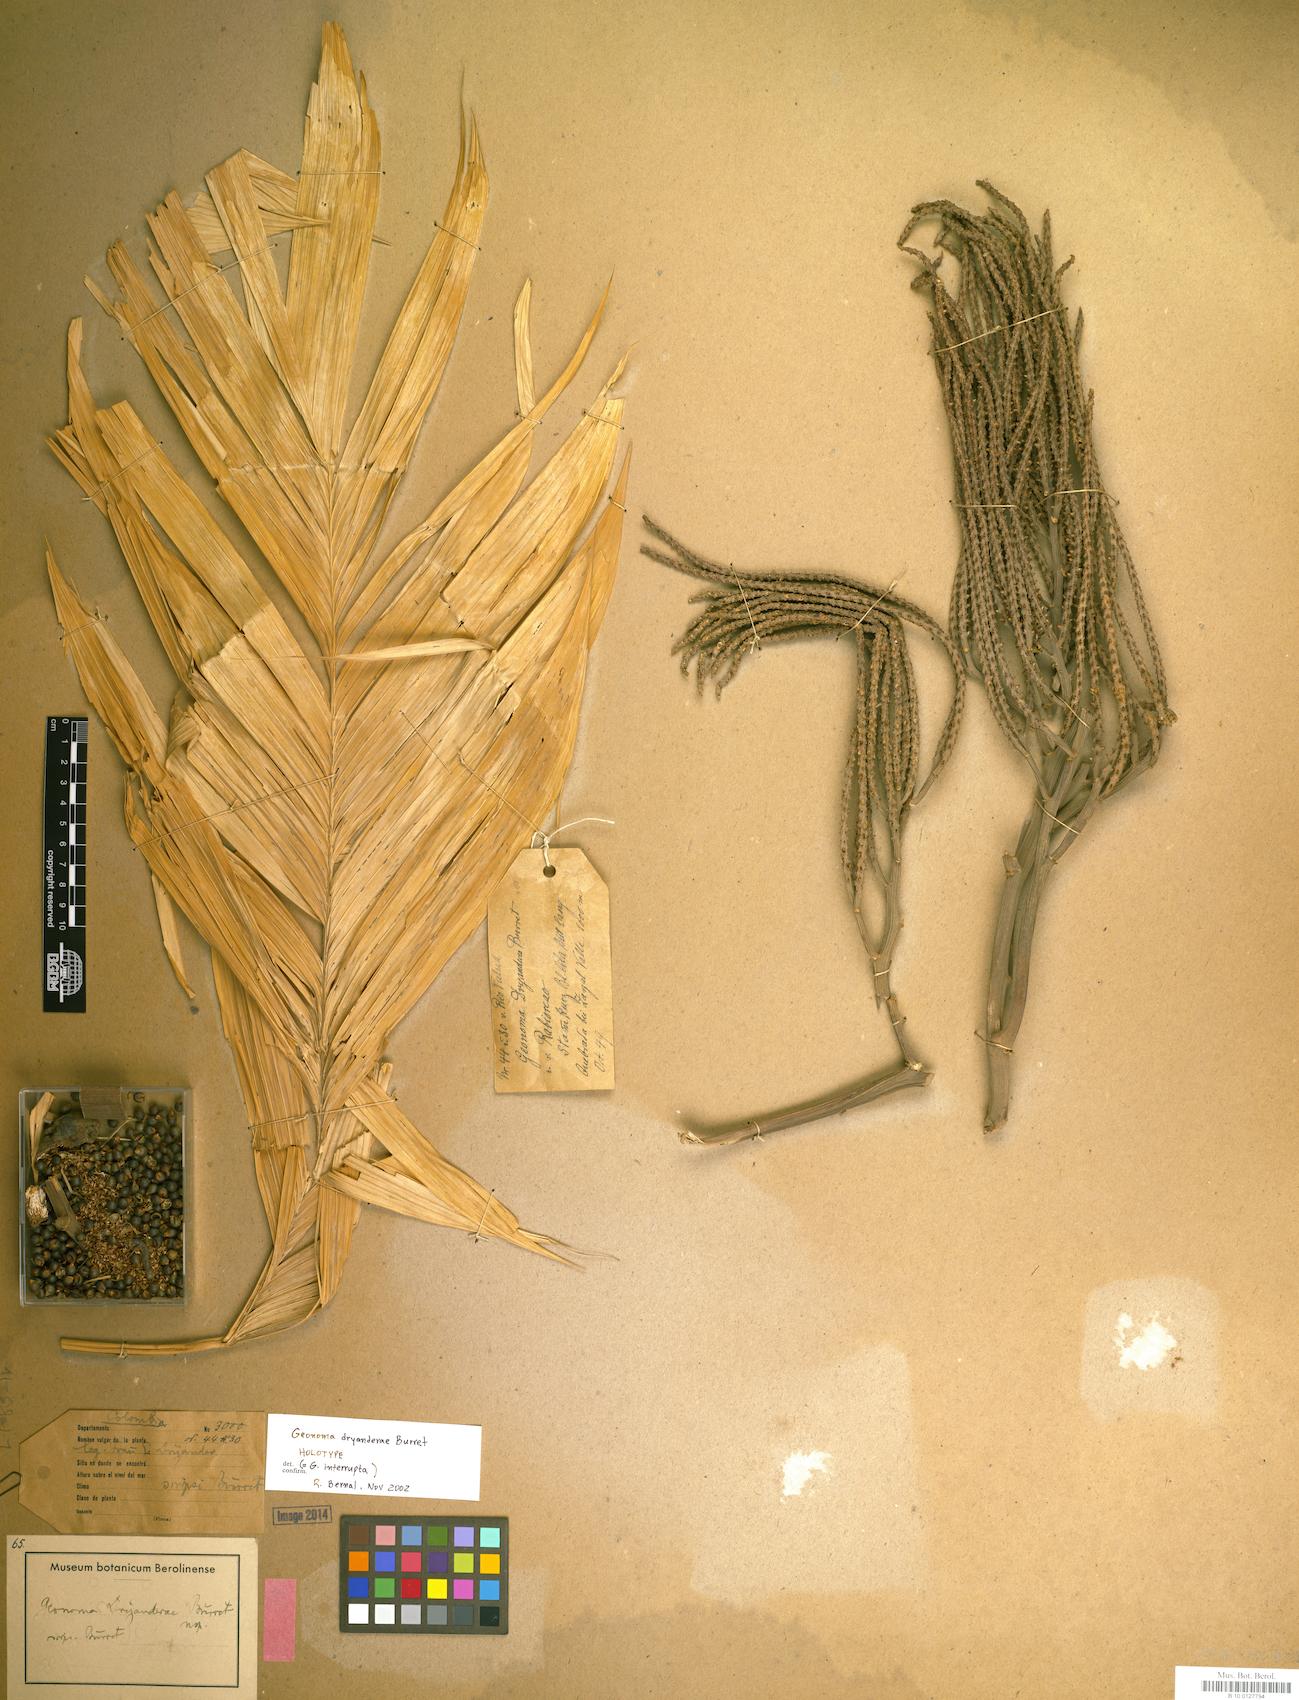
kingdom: Plantae
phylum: Tracheophyta
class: Liliopsida
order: Arecales
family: Arecaceae
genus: Geonoma
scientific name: Geonoma interrupta
